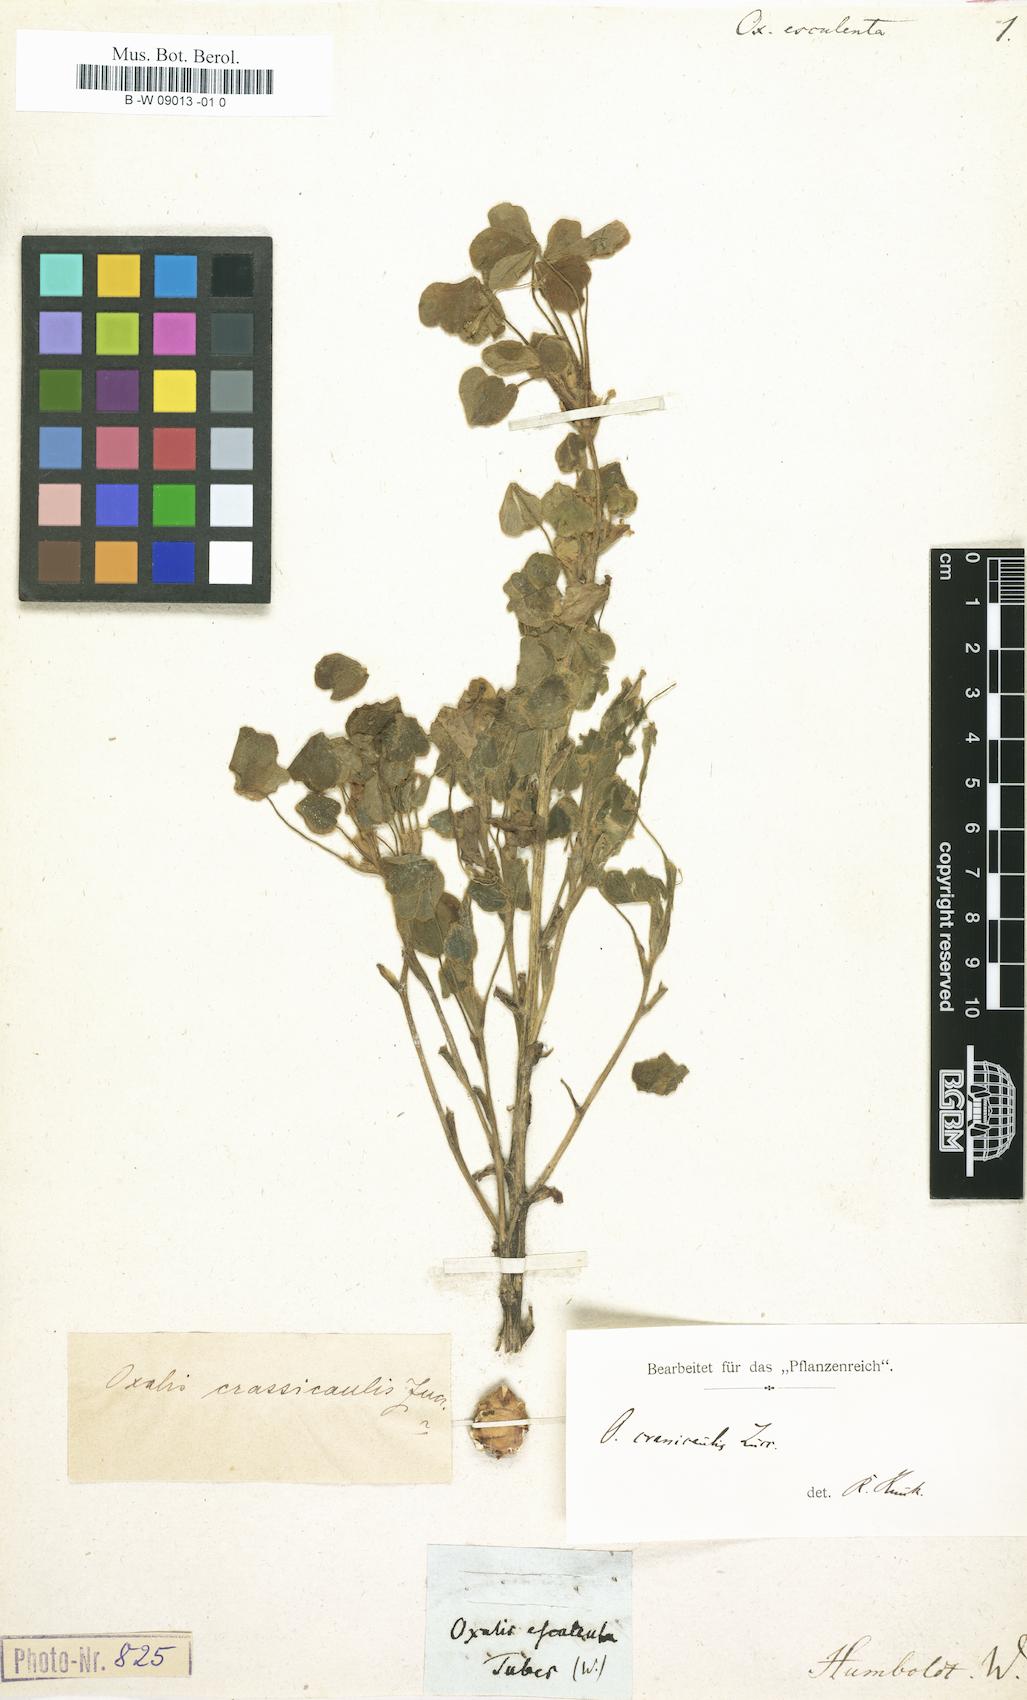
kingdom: Plantae
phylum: Tracheophyta
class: Magnoliopsida
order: Oxalidales
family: Oxalidaceae
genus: Oxalis
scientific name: Oxalis tetraphylla
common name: Four-leaved pink-sorrel
